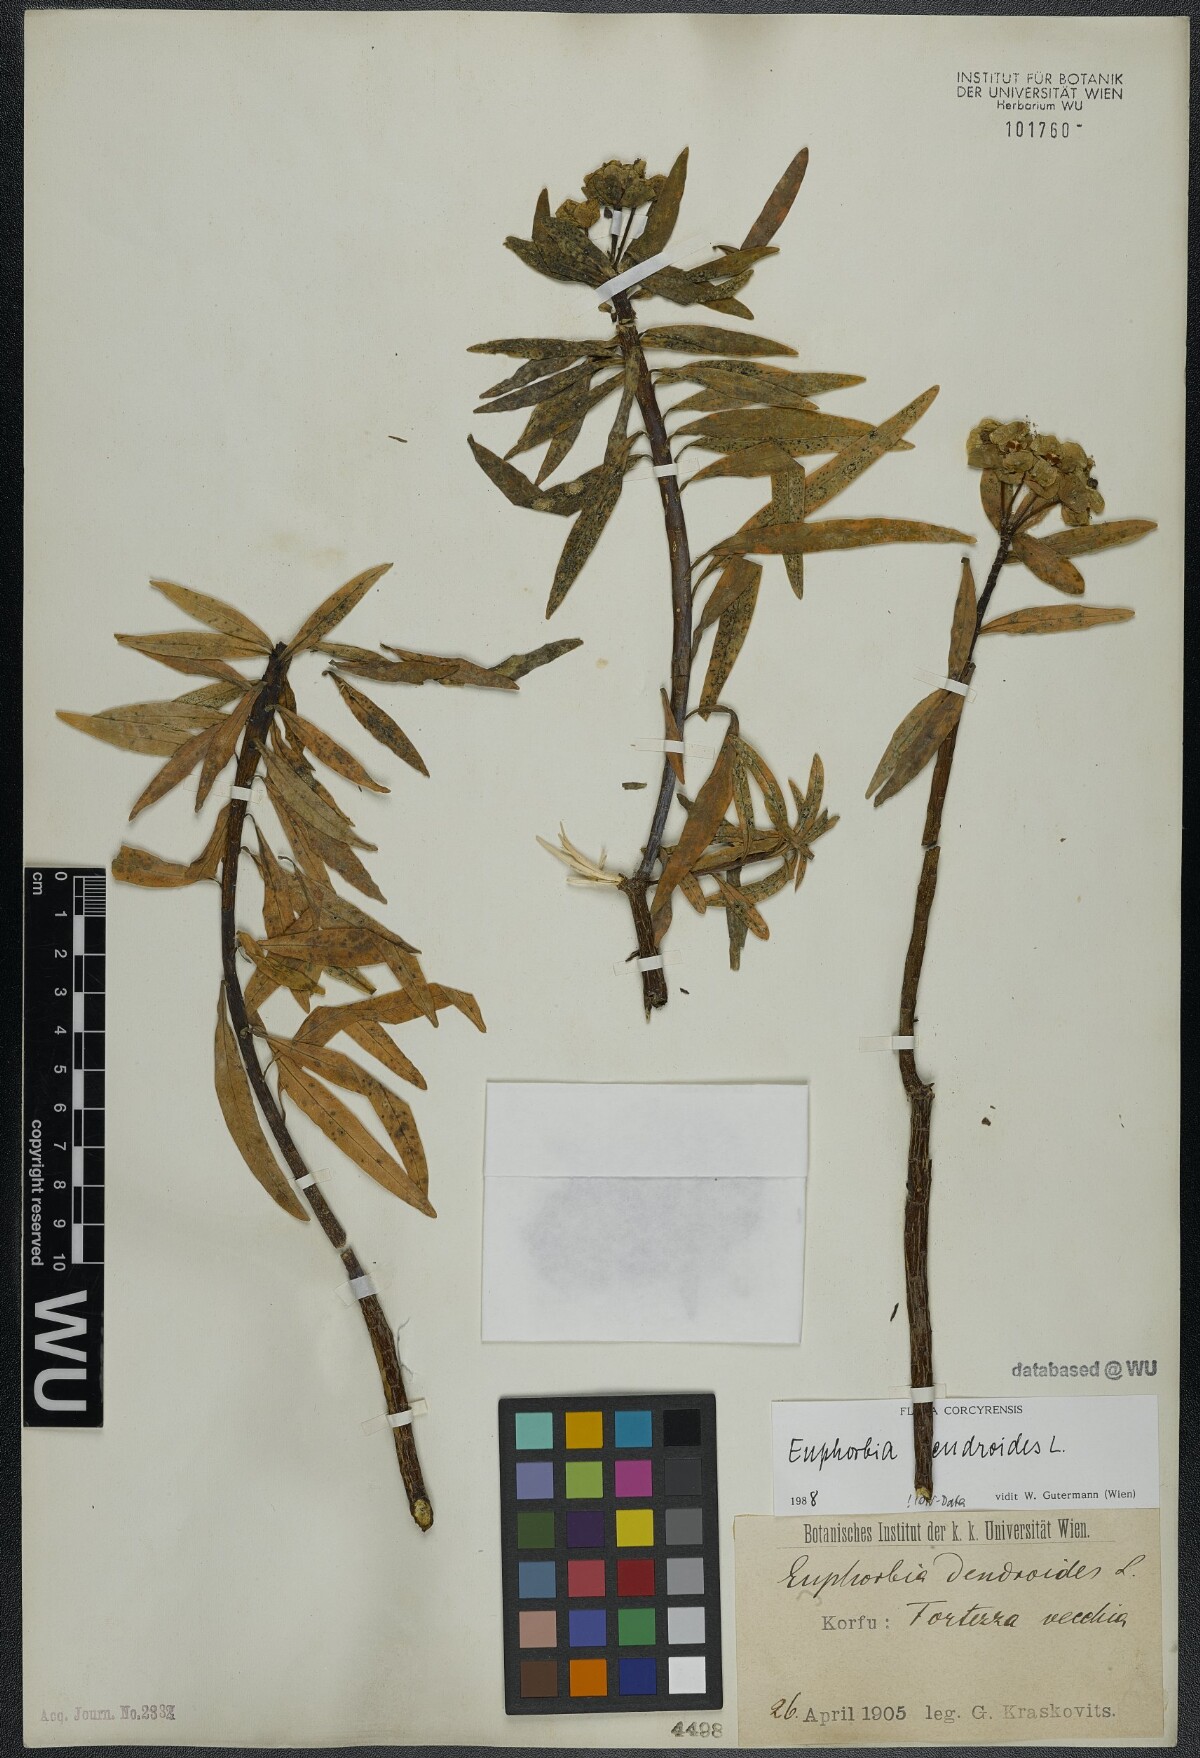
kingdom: Plantae
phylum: Tracheophyta
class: Magnoliopsida
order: Malpighiales
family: Euphorbiaceae
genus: Euphorbia
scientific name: Euphorbia dendroides
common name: Tree spurge
